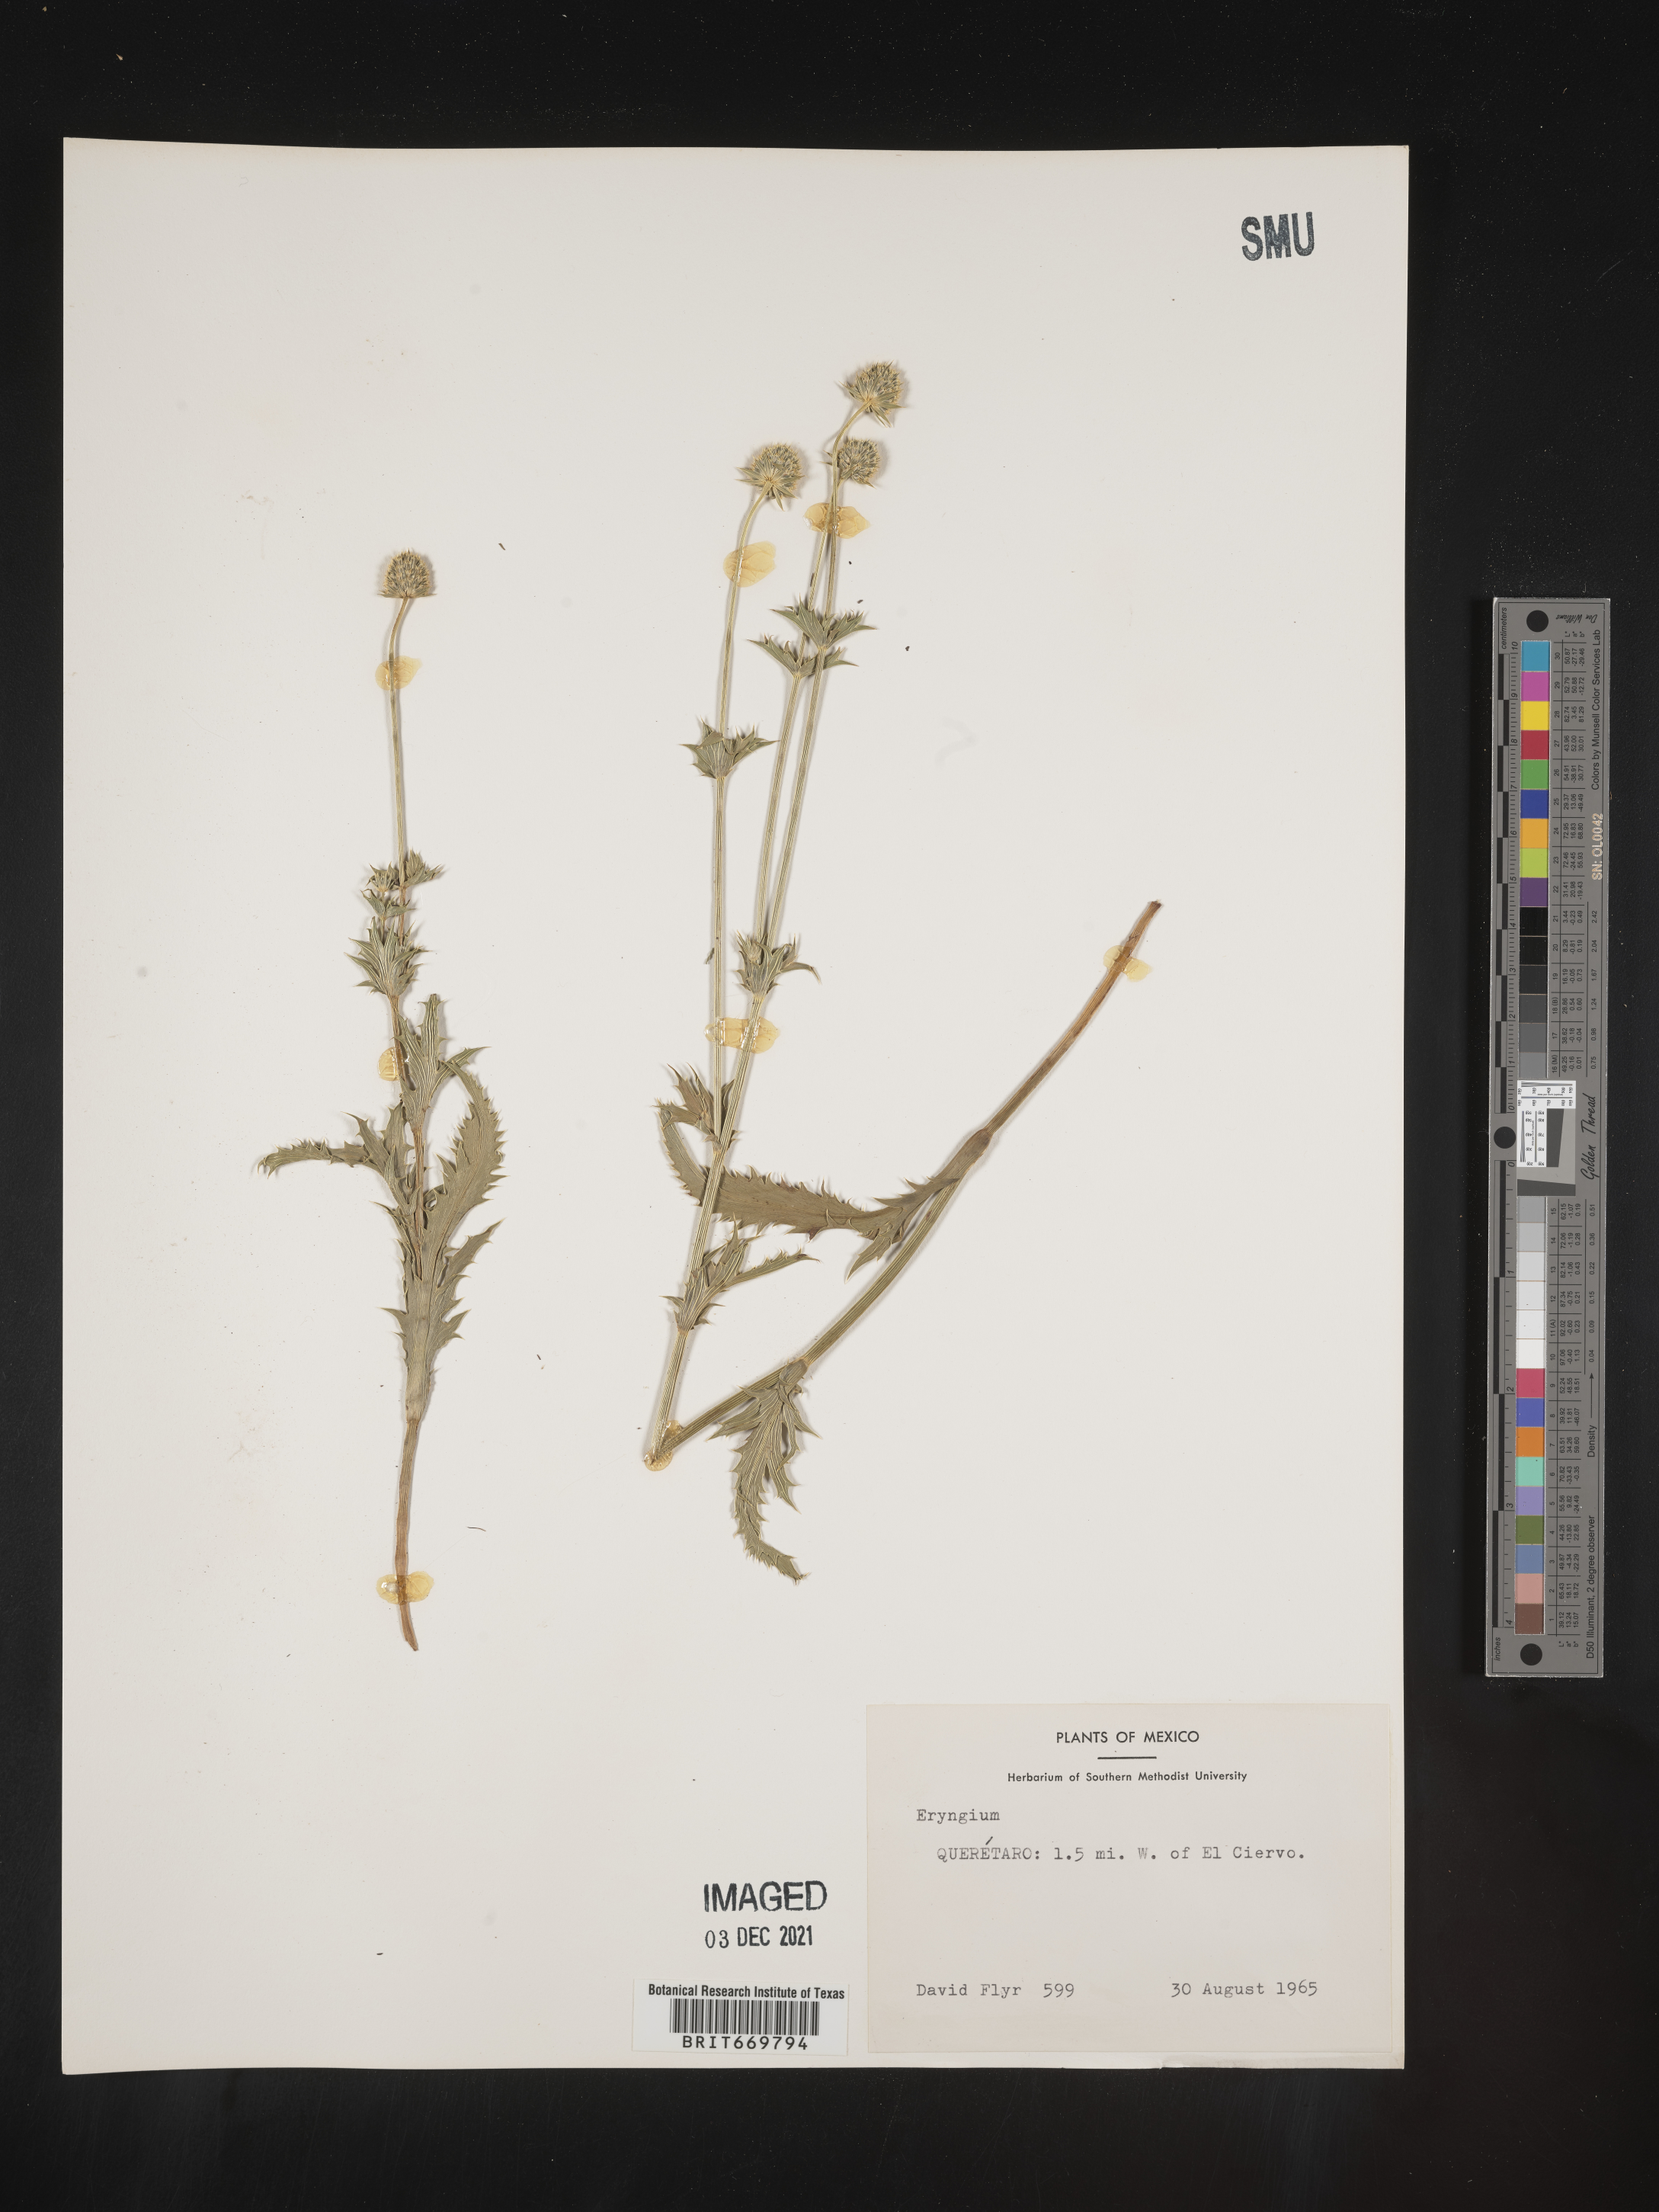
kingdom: Plantae
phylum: Tracheophyta
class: Magnoliopsida
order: Apiales
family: Apiaceae
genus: Eryngium
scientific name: Eryngium
